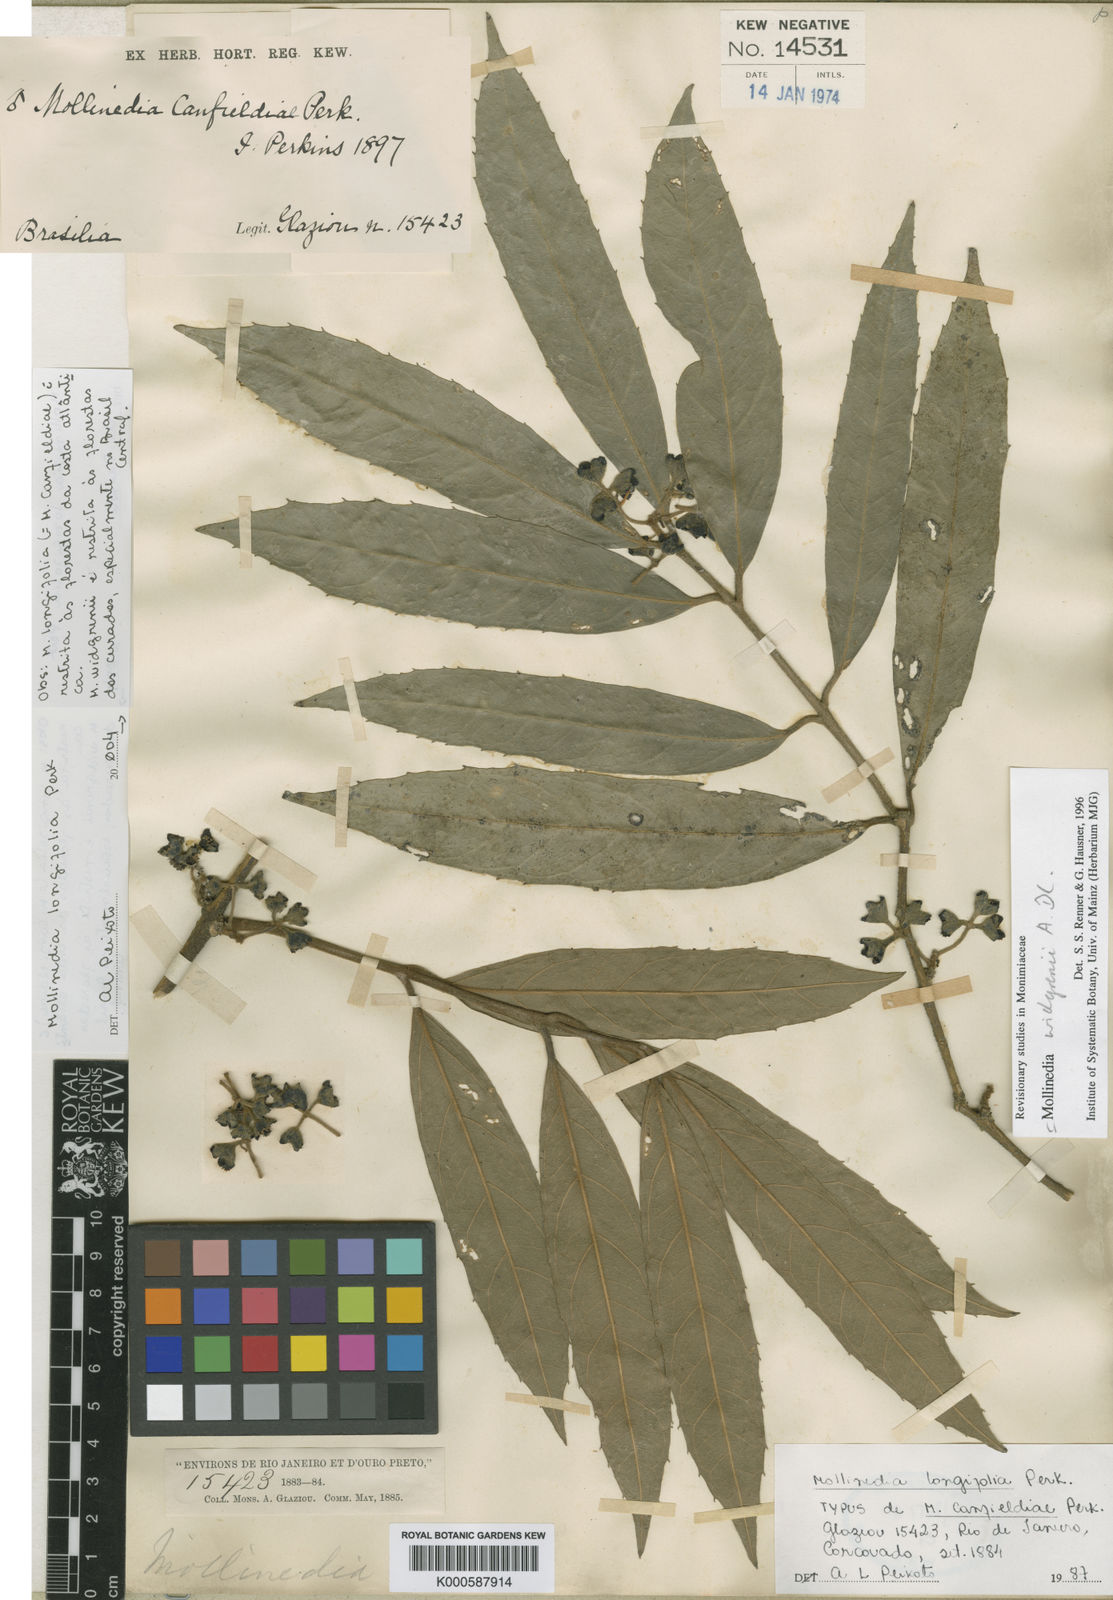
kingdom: Plantae
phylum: Tracheophyta
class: Magnoliopsida
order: Laurales
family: Monimiaceae
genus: Mollinedia
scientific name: Mollinedia longifolia
